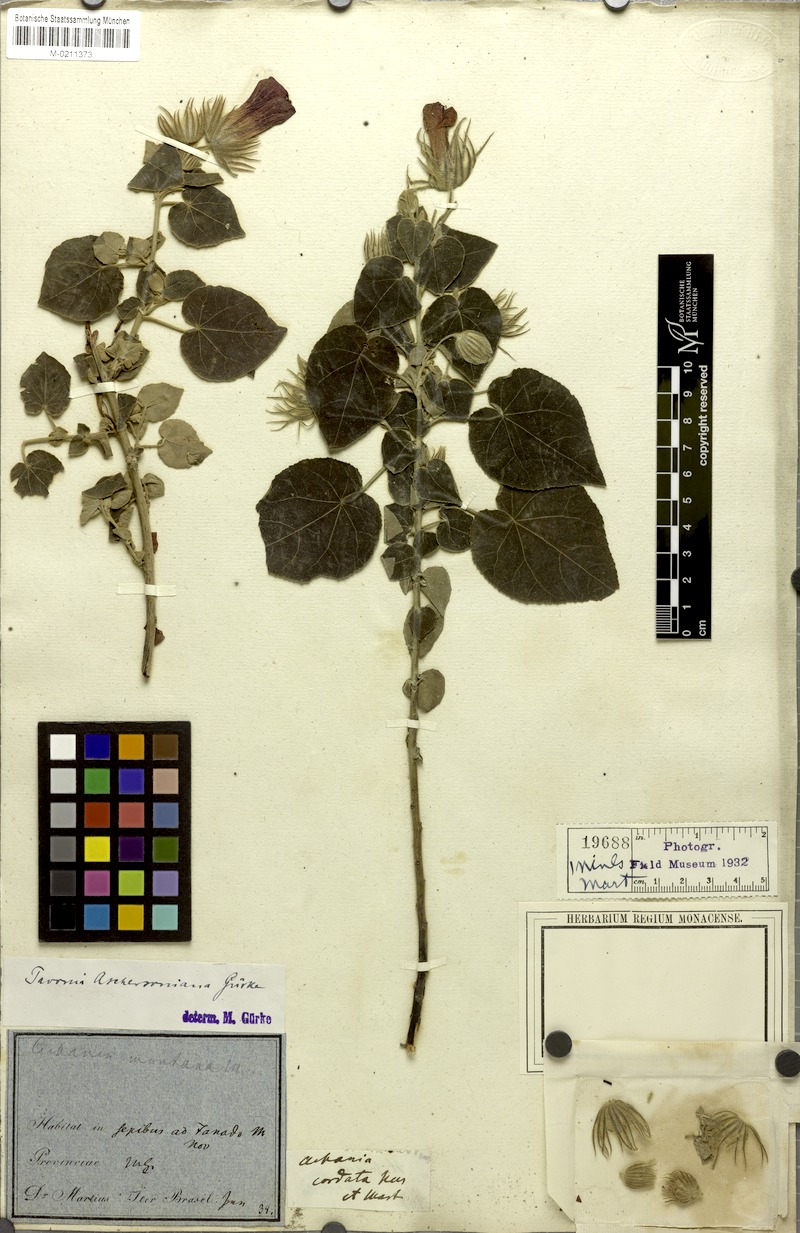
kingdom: Plantae
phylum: Tracheophyta
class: Magnoliopsida
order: Malvales
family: Malvaceae
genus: Pavonia
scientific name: Pavonia aschersoniana
